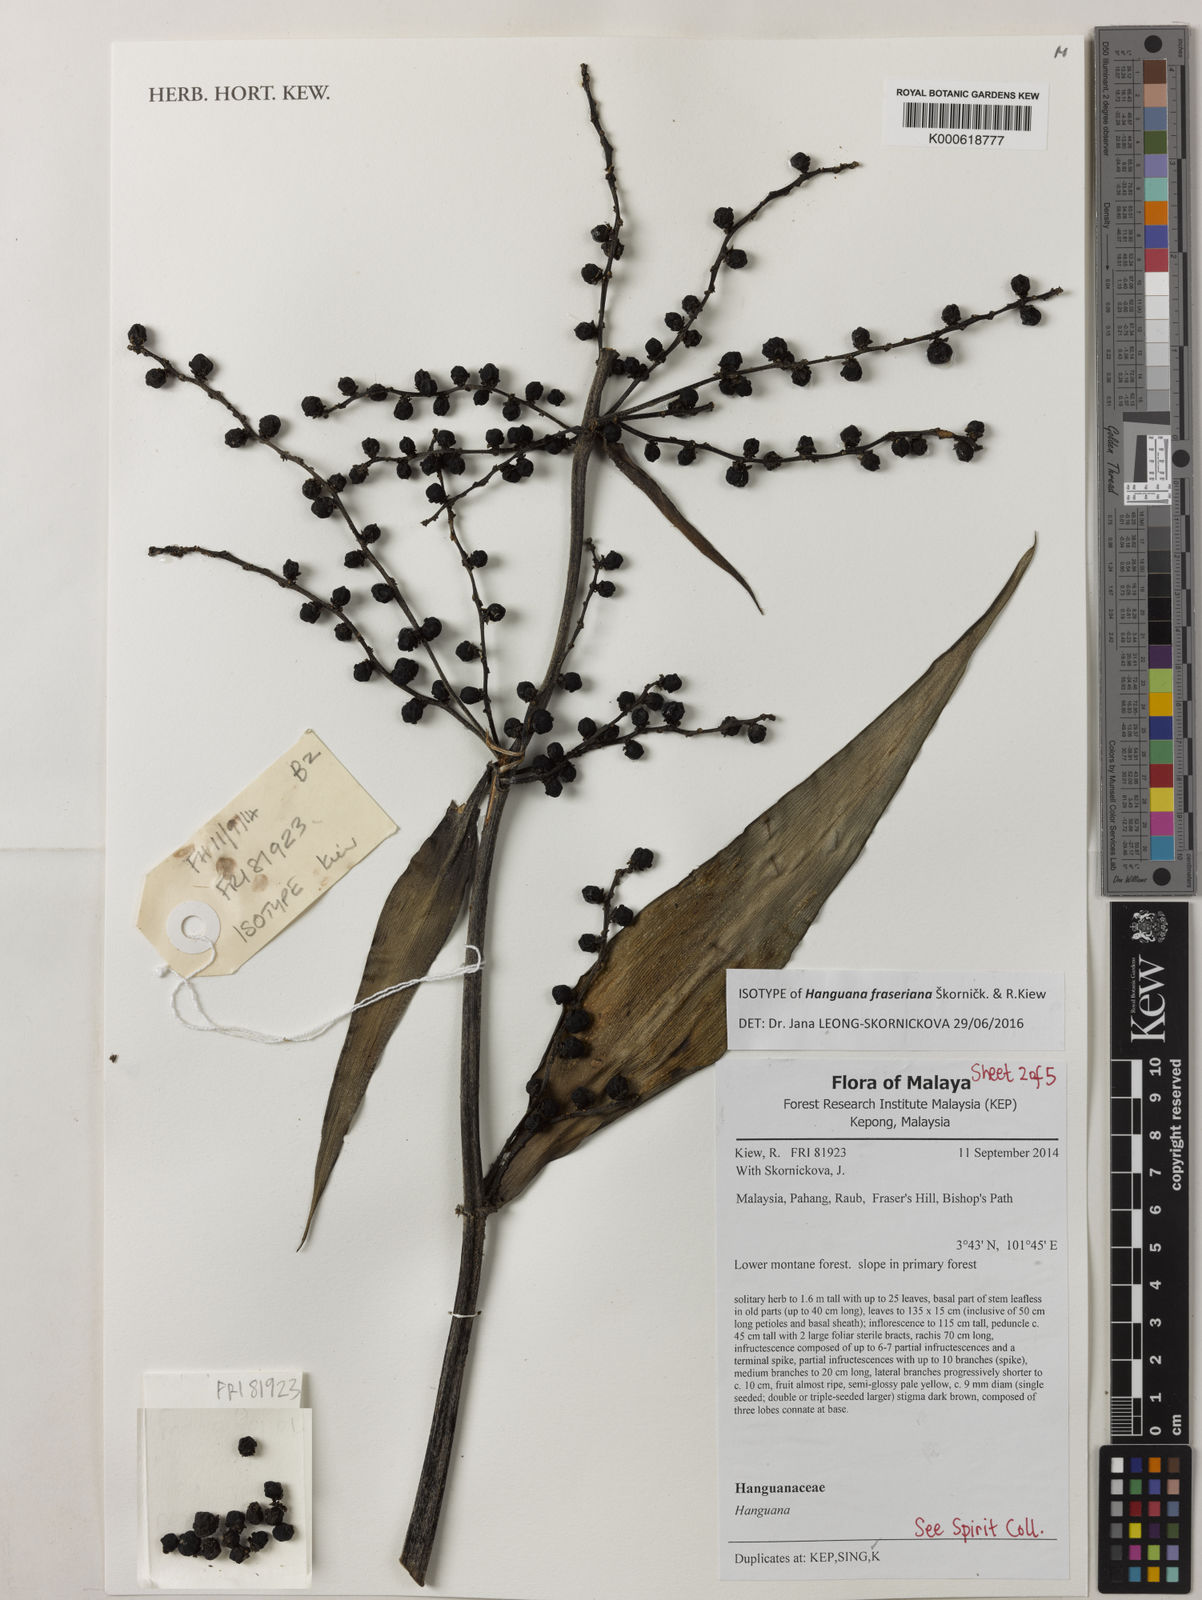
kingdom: Plantae
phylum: Tracheophyta
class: Liliopsida
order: Commelinales
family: Hanguanaceae
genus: Hanguana
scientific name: Hanguana fraseriana
